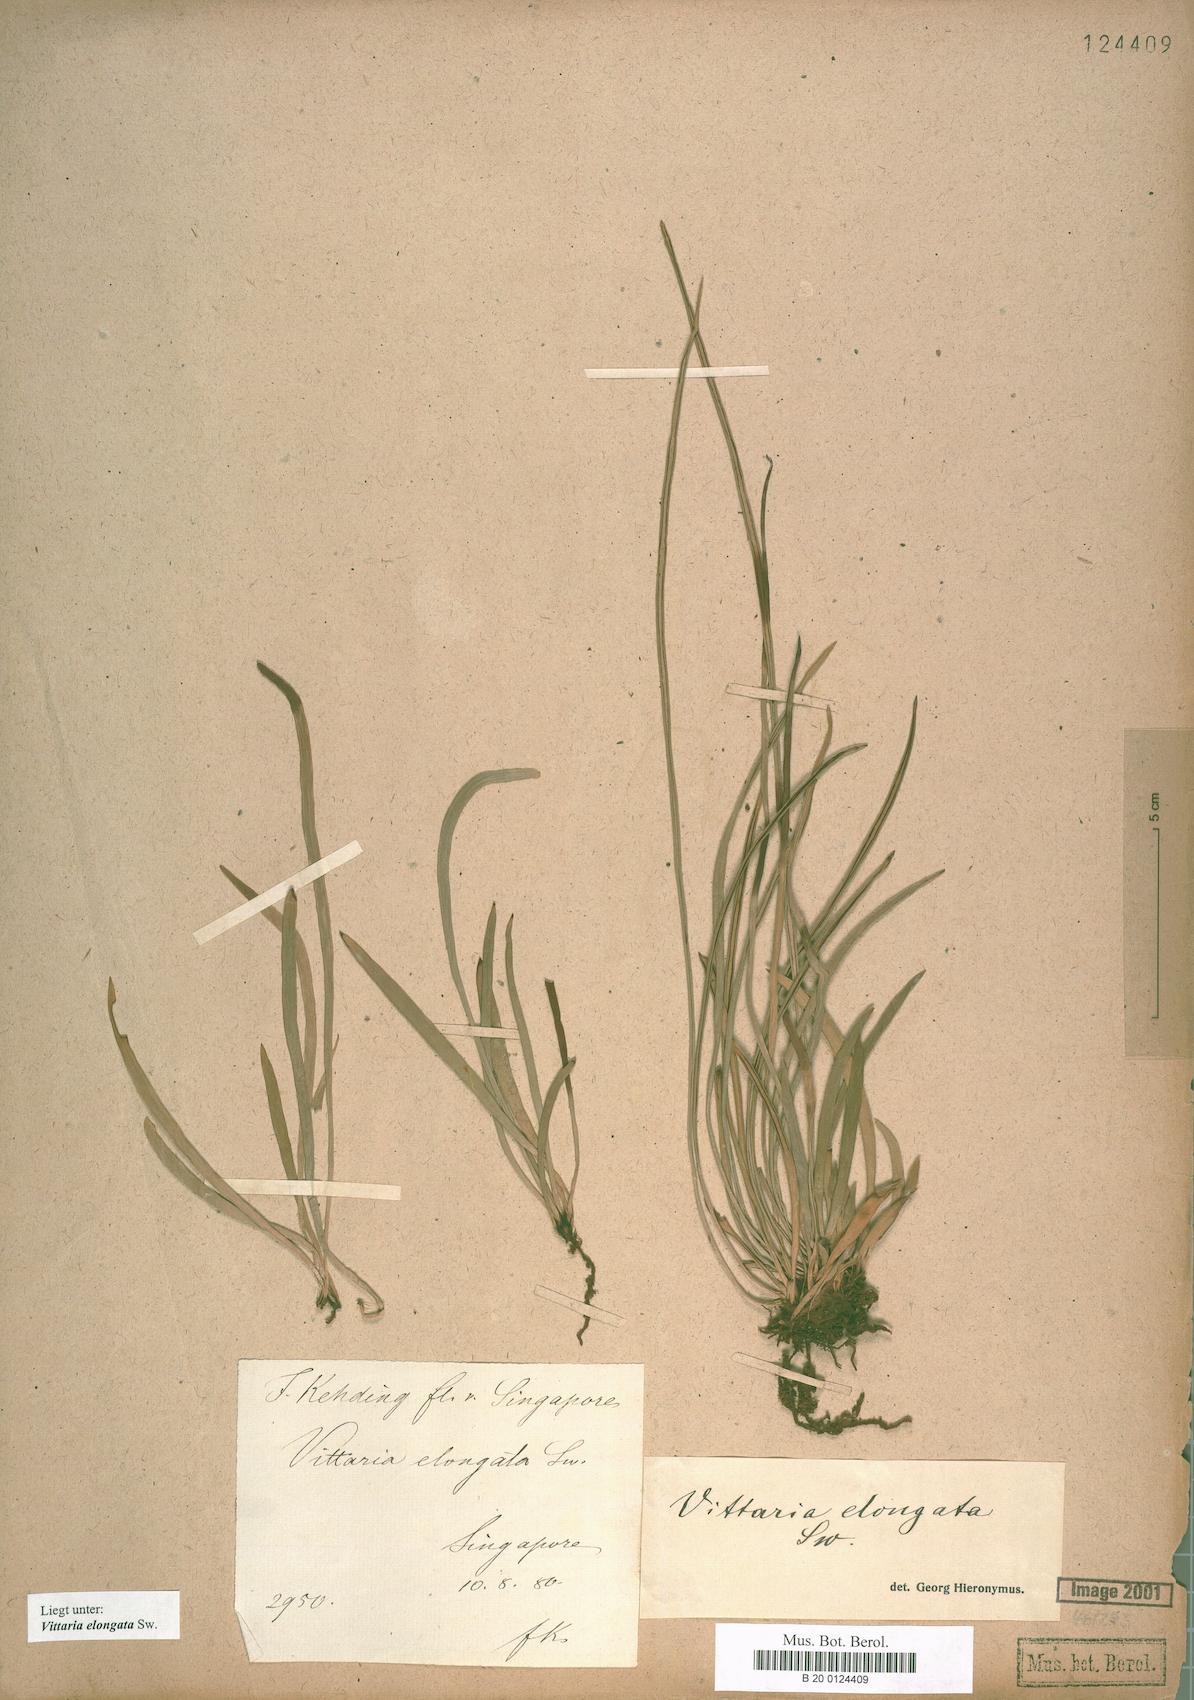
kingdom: Plantae
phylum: Tracheophyta
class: Polypodiopsida
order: Polypodiales
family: Pteridaceae
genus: Haplopteris
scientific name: Haplopteris elongata
